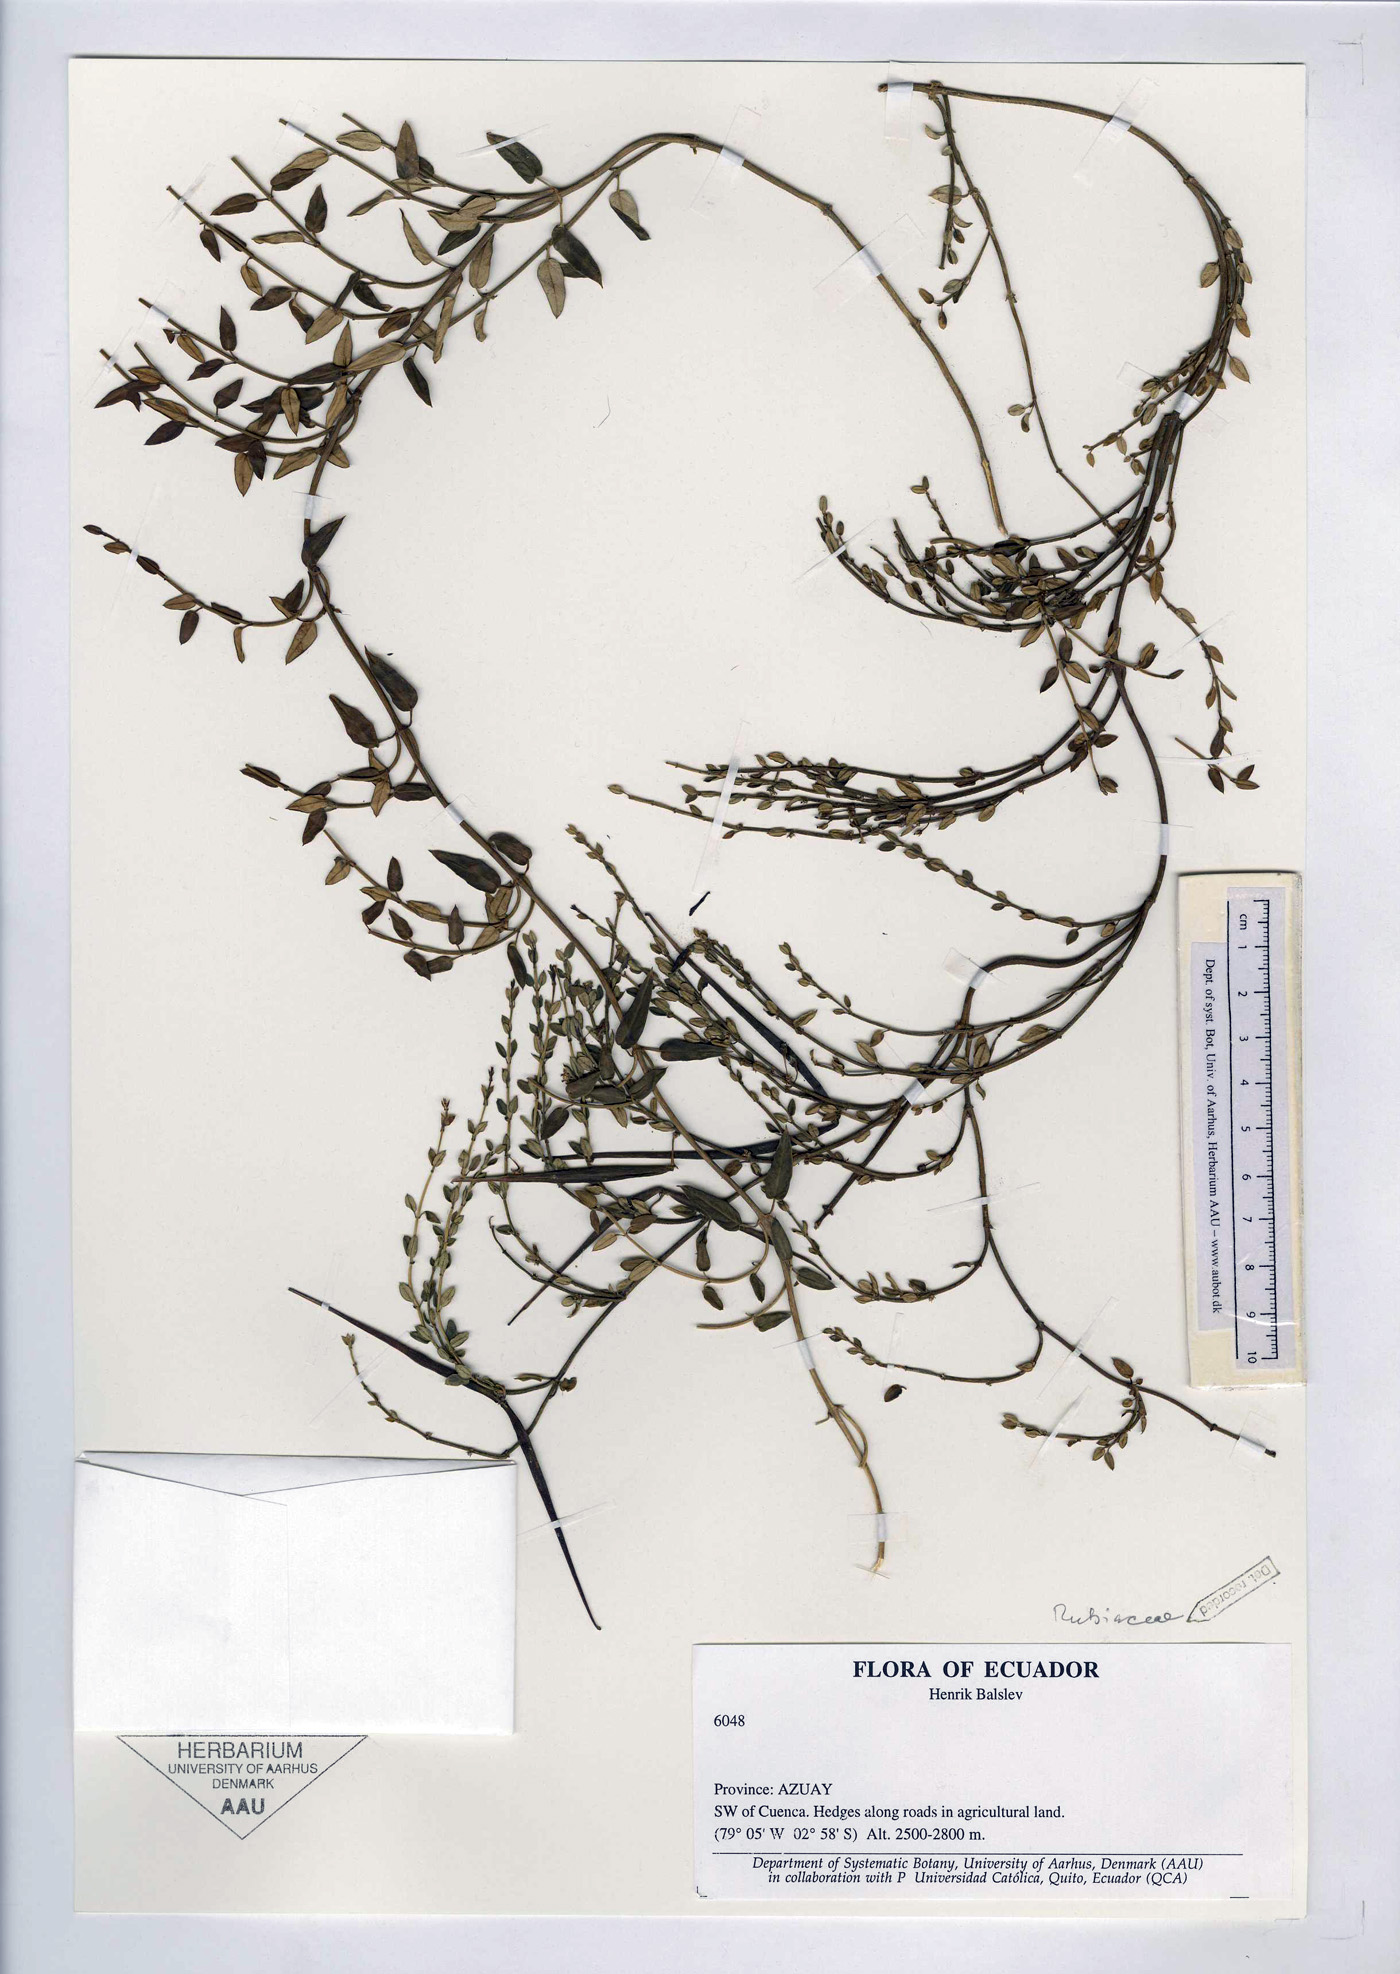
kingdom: Plantae
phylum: Tracheophyta
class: Magnoliopsida
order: Gentianales
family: Rubiaceae
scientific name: Rubiaceae
